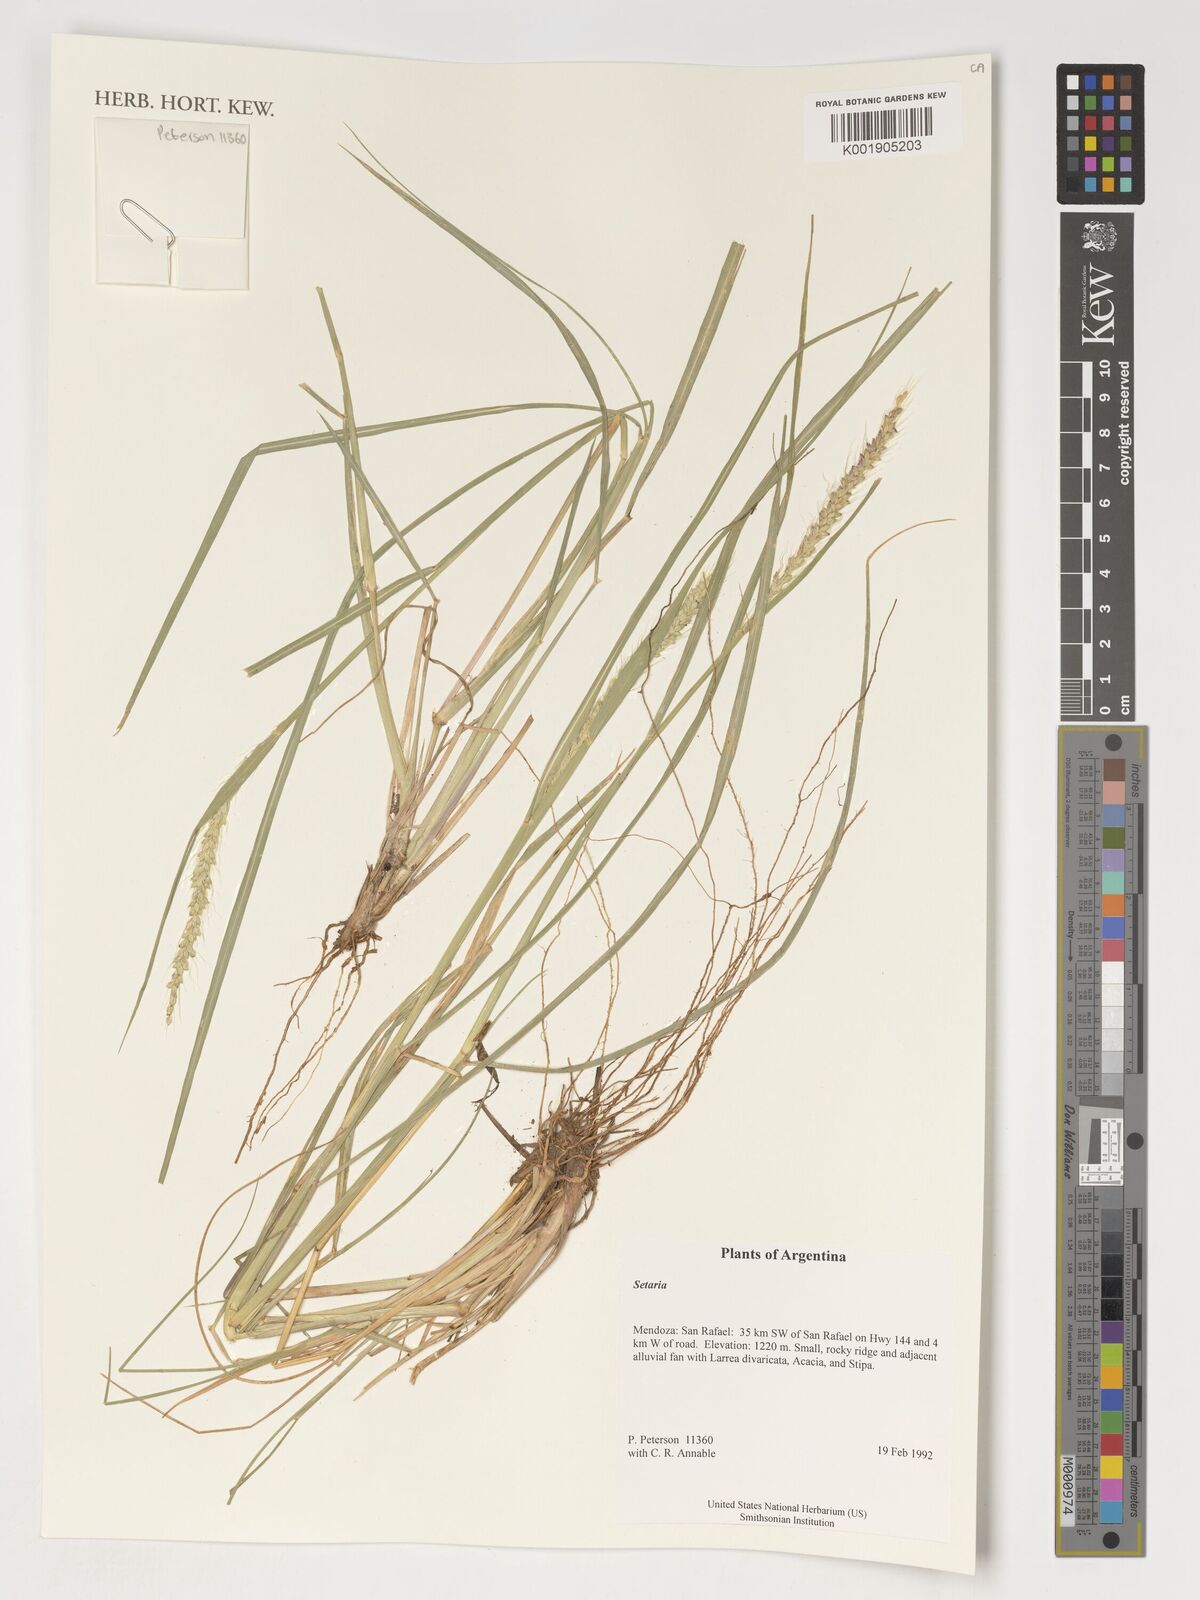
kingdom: Fungi
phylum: Ascomycota
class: Lecanoromycetes
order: Lecanorales
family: Parmeliaceae
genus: Bryoria
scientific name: Bryoria
